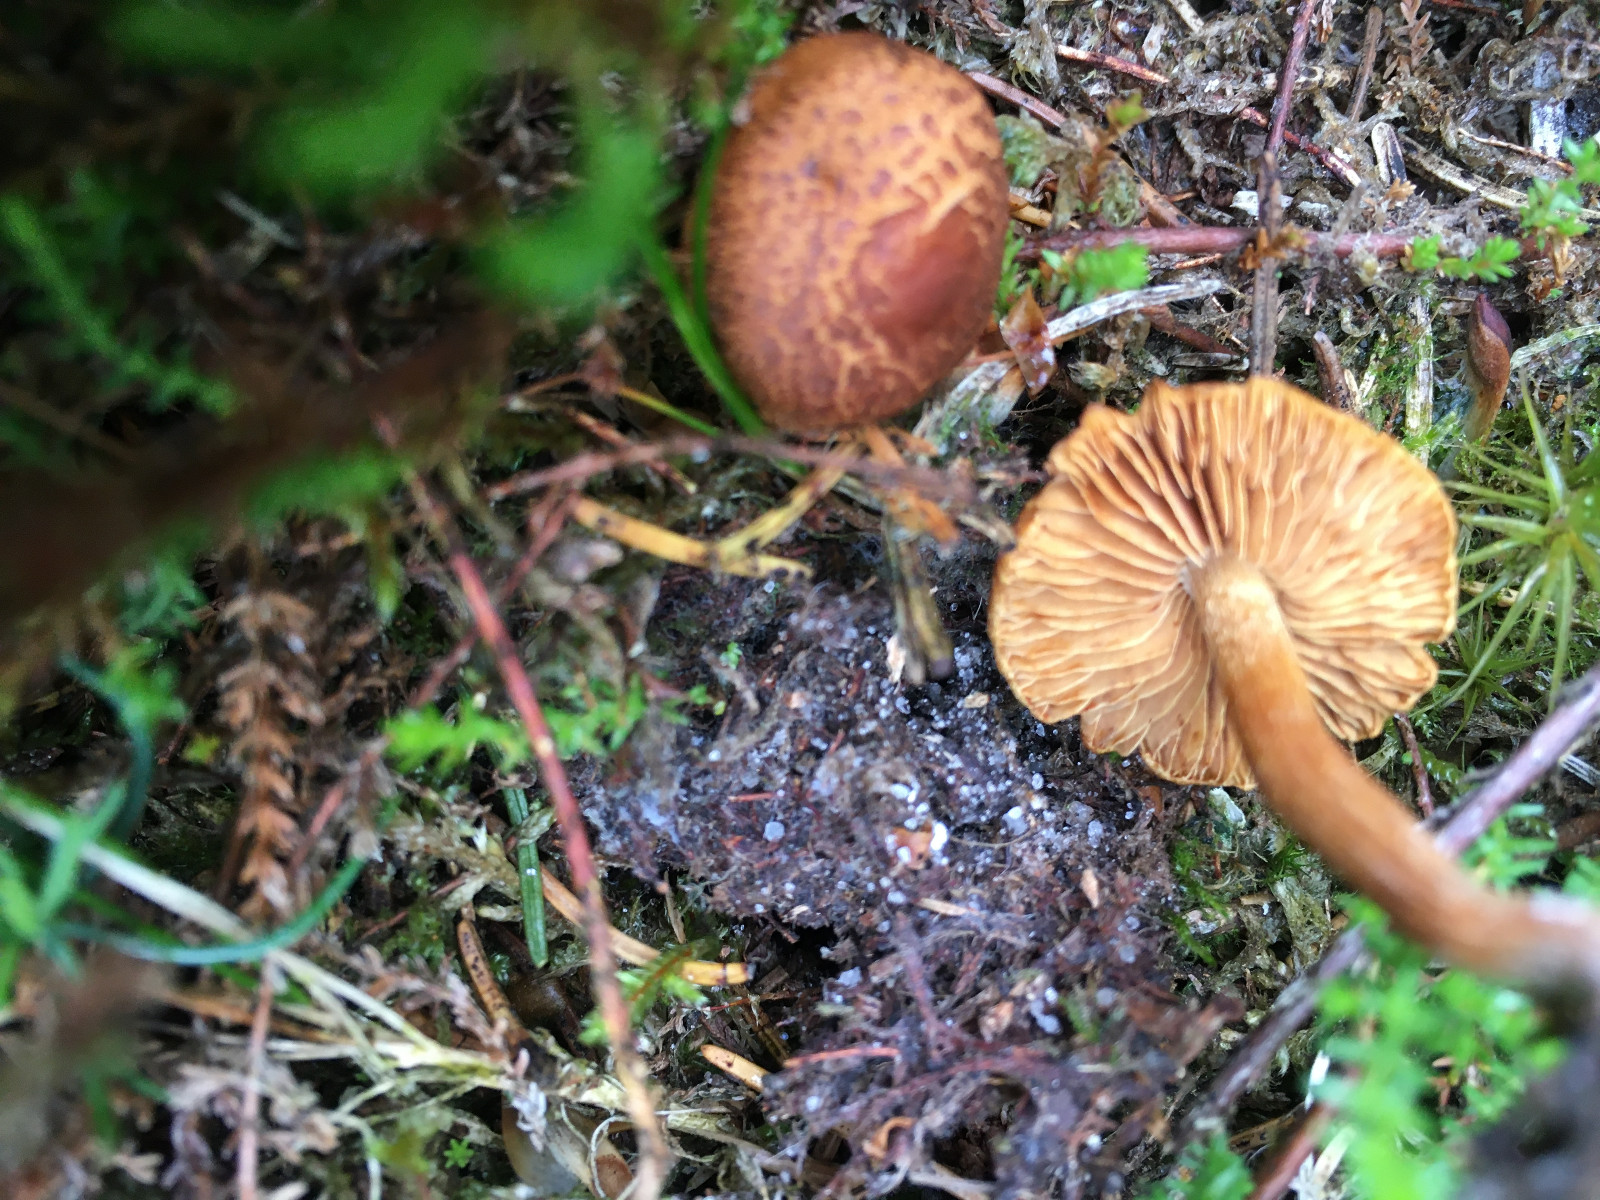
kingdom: Fungi
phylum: Basidiomycota
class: Agaricomycetes
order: Agaricales
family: Hymenogastraceae
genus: Gymnopilus
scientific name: Gymnopilus decipiens
